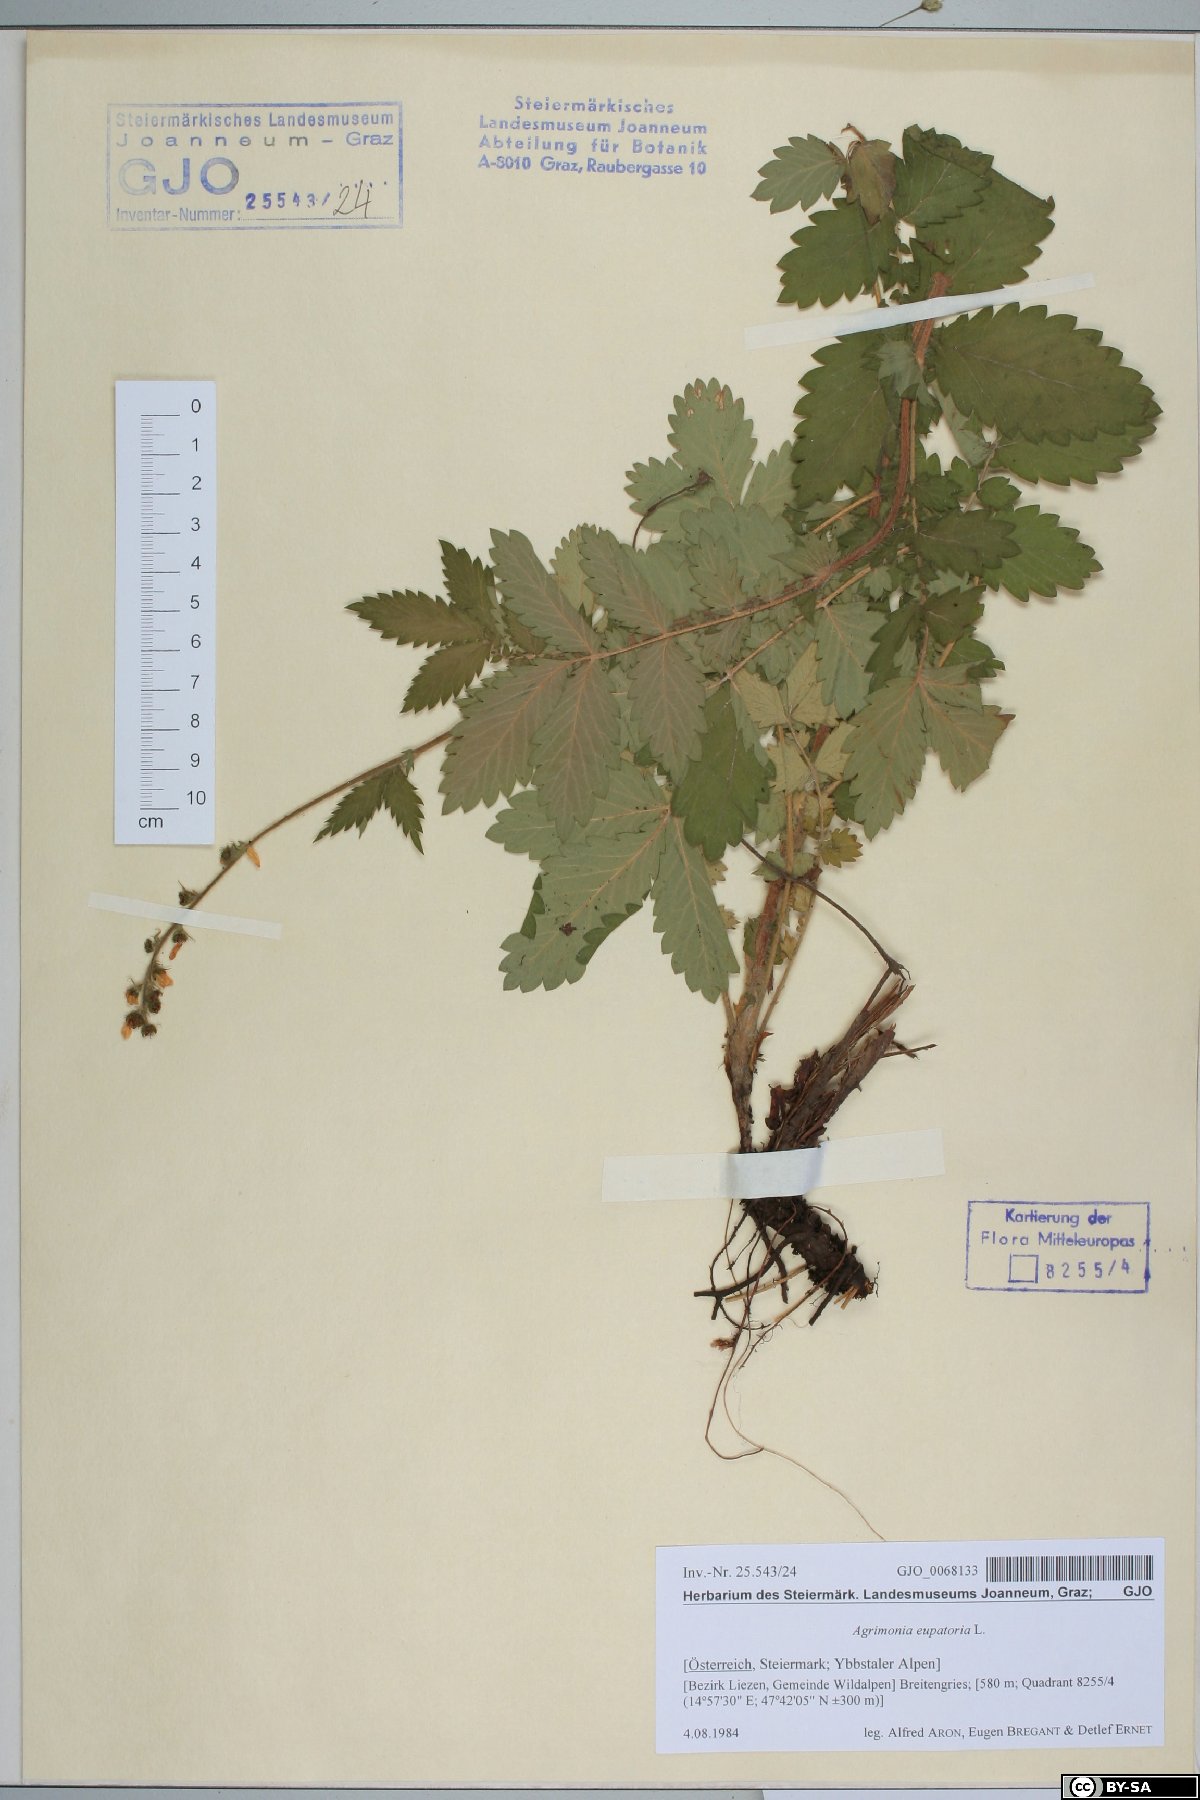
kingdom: Plantae
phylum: Tracheophyta
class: Magnoliopsida
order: Rosales
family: Rosaceae
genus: Agrimonia
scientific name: Agrimonia eupatoria
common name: Agrimony
